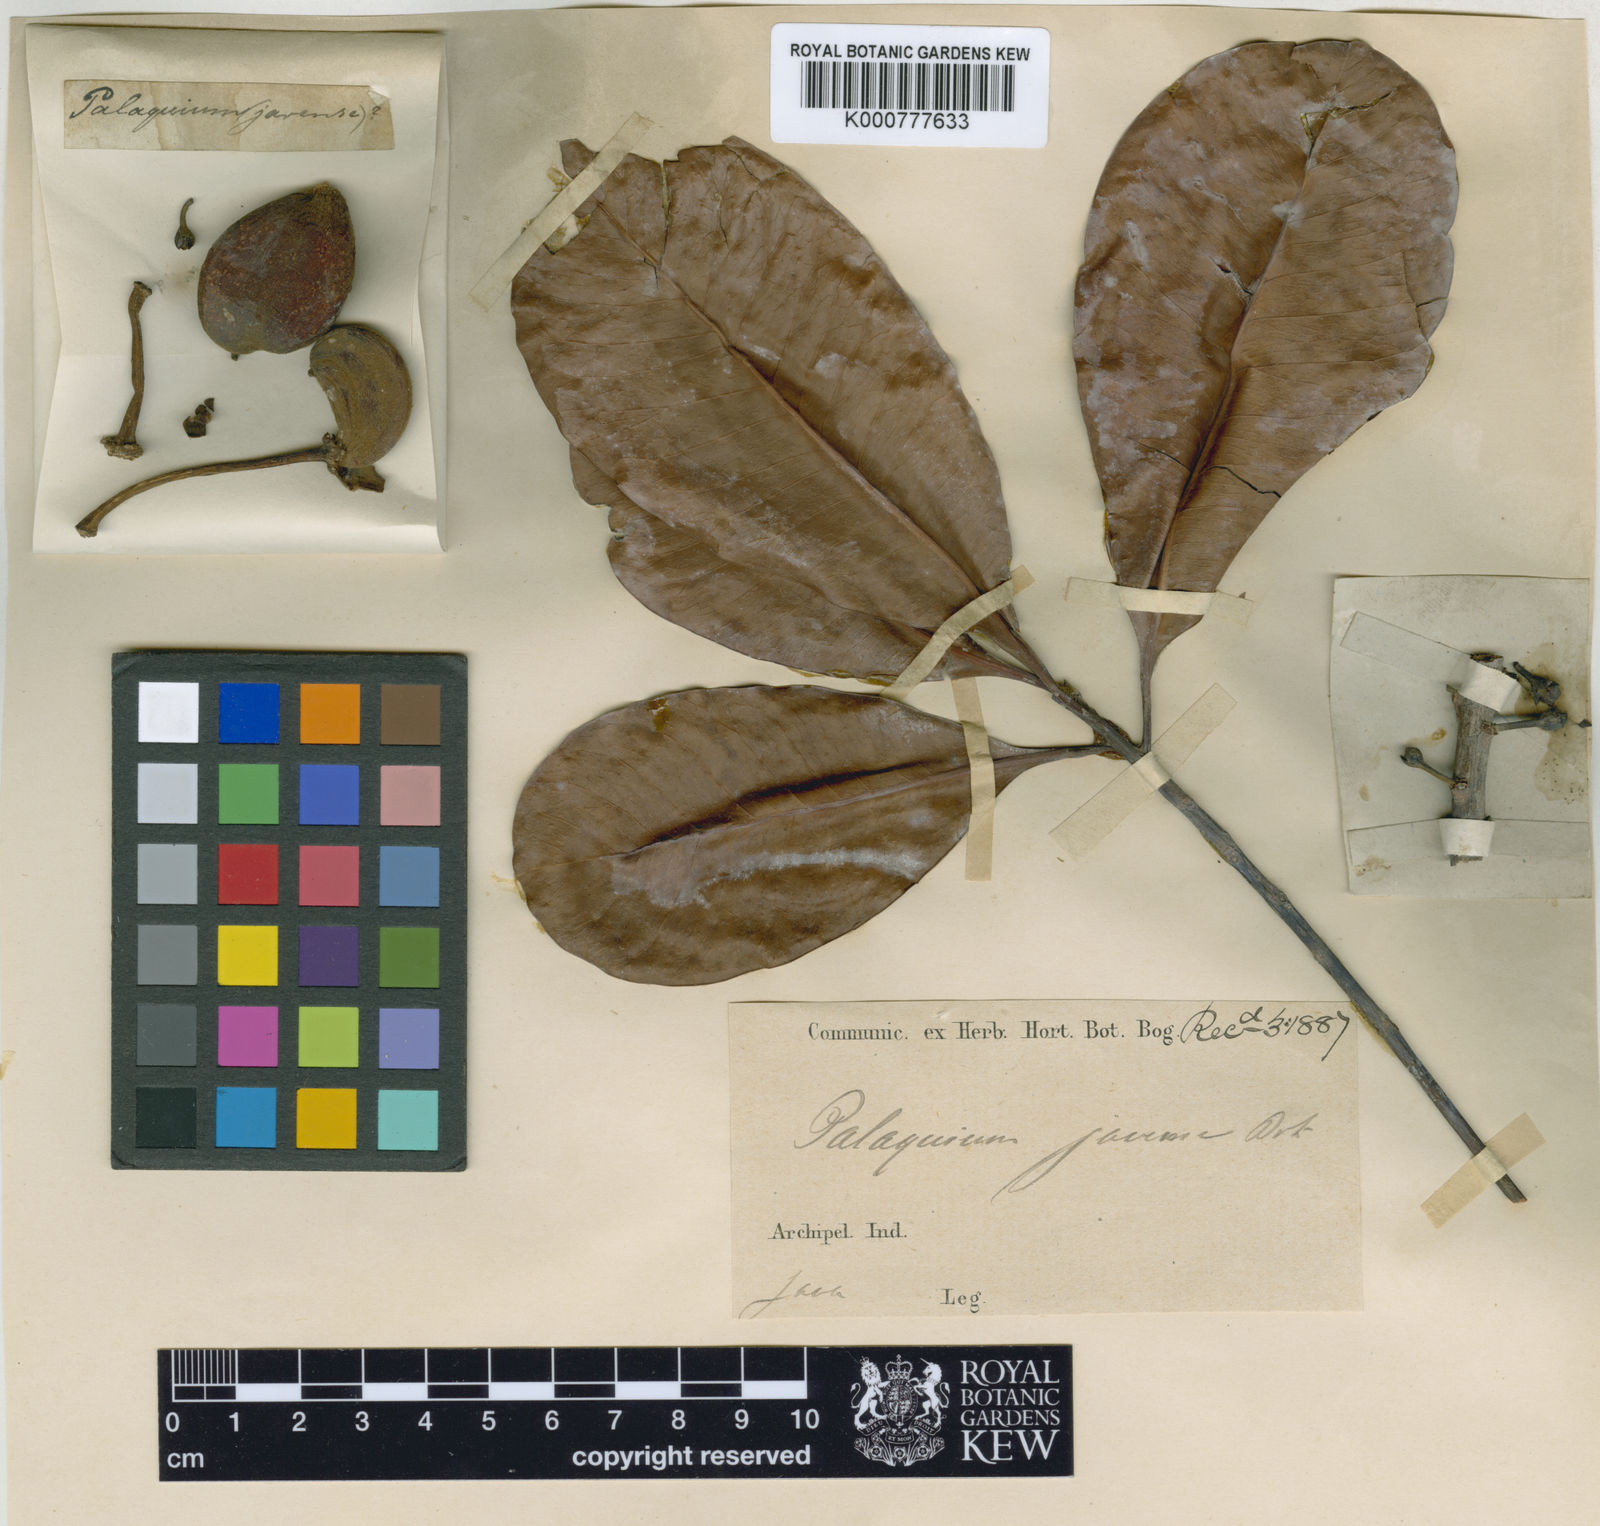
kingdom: Plantae
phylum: Tracheophyta
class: Magnoliopsida
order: Ericales
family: Sapotaceae
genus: Palaquium
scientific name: Palaquium amboinense
